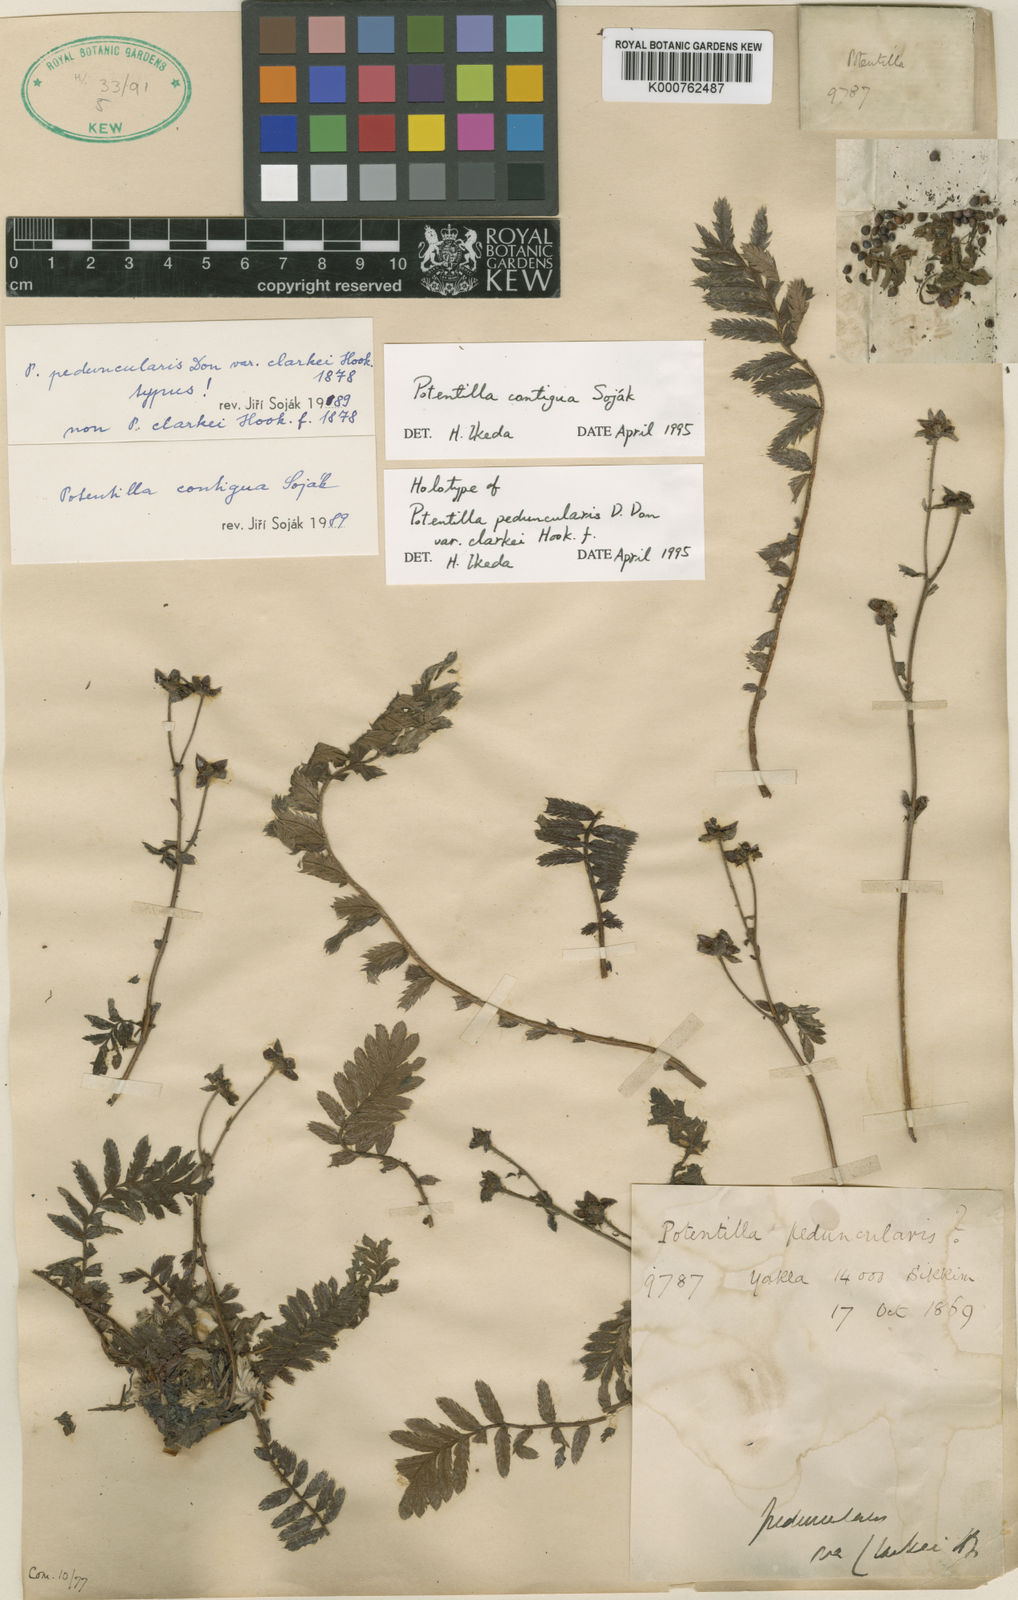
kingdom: Plantae
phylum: Tracheophyta
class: Magnoliopsida
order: Rosales
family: Rosaceae
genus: Potentilla
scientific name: Potentilla
